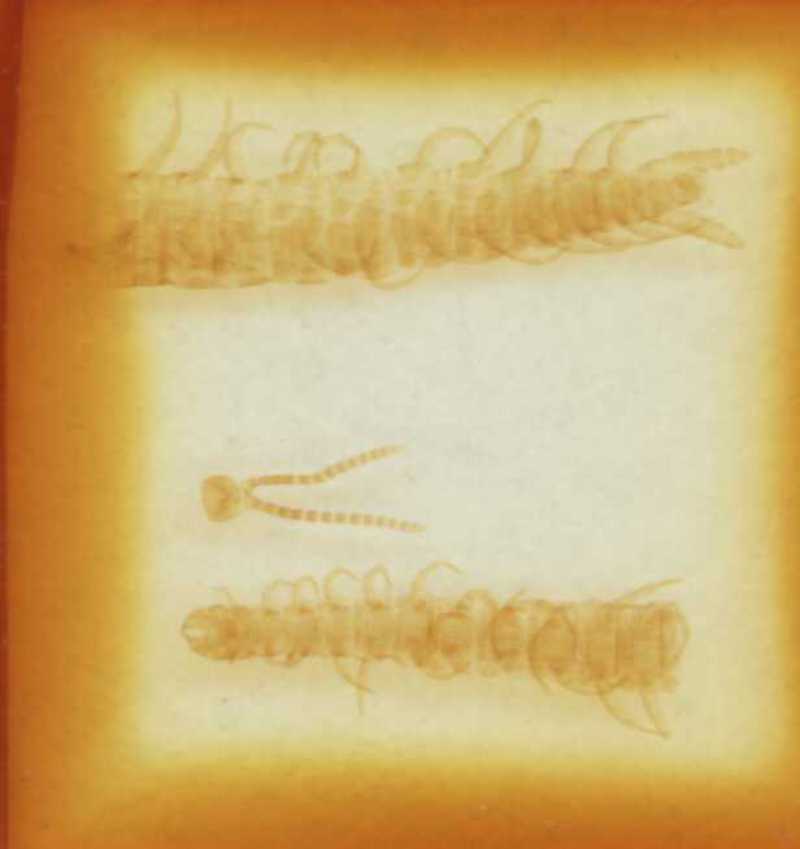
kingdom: Animalia
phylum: Arthropoda
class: Chilopoda
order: Geophilomorpha
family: Linotaeniidae
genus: Strigamia
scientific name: Strigamia crassipes
